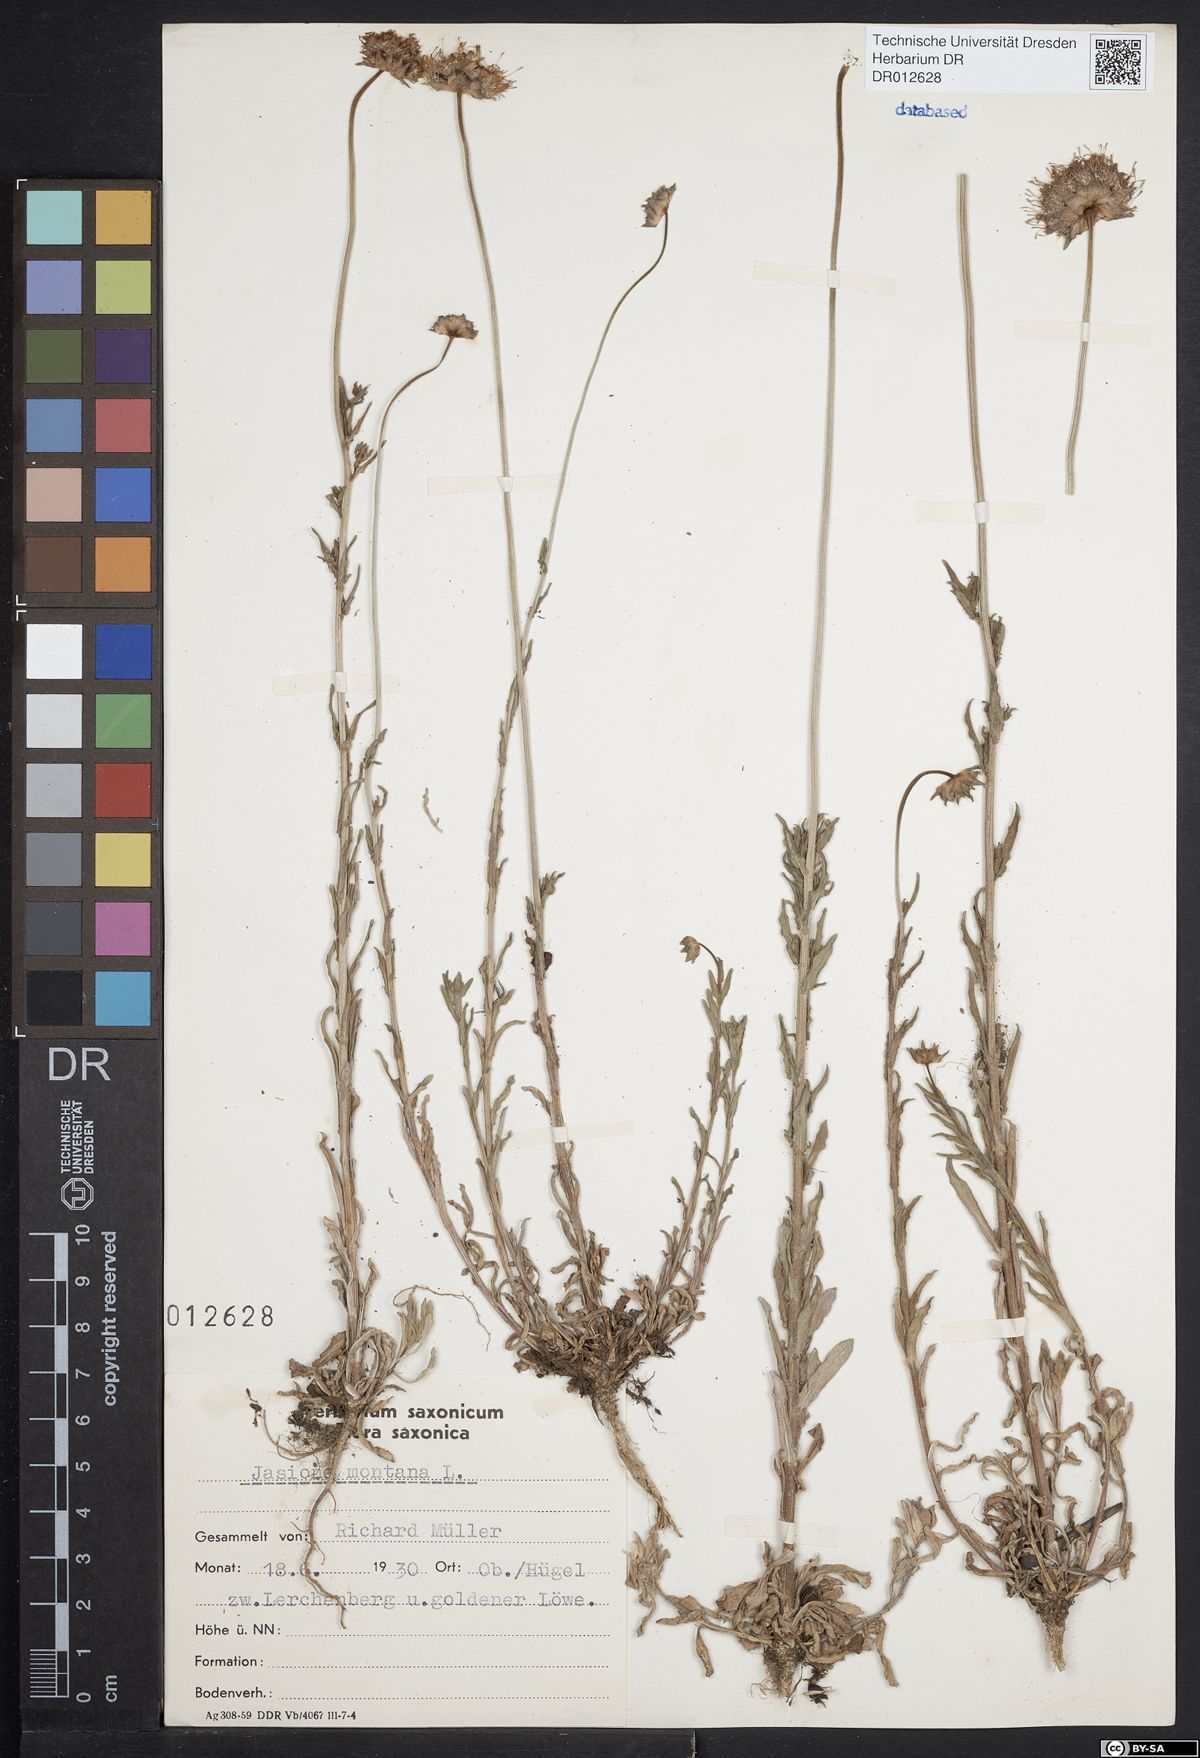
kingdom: Plantae
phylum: Tracheophyta
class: Magnoliopsida
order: Asterales
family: Campanulaceae
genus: Jasione
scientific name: Jasione montana
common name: Sheep's-bit
